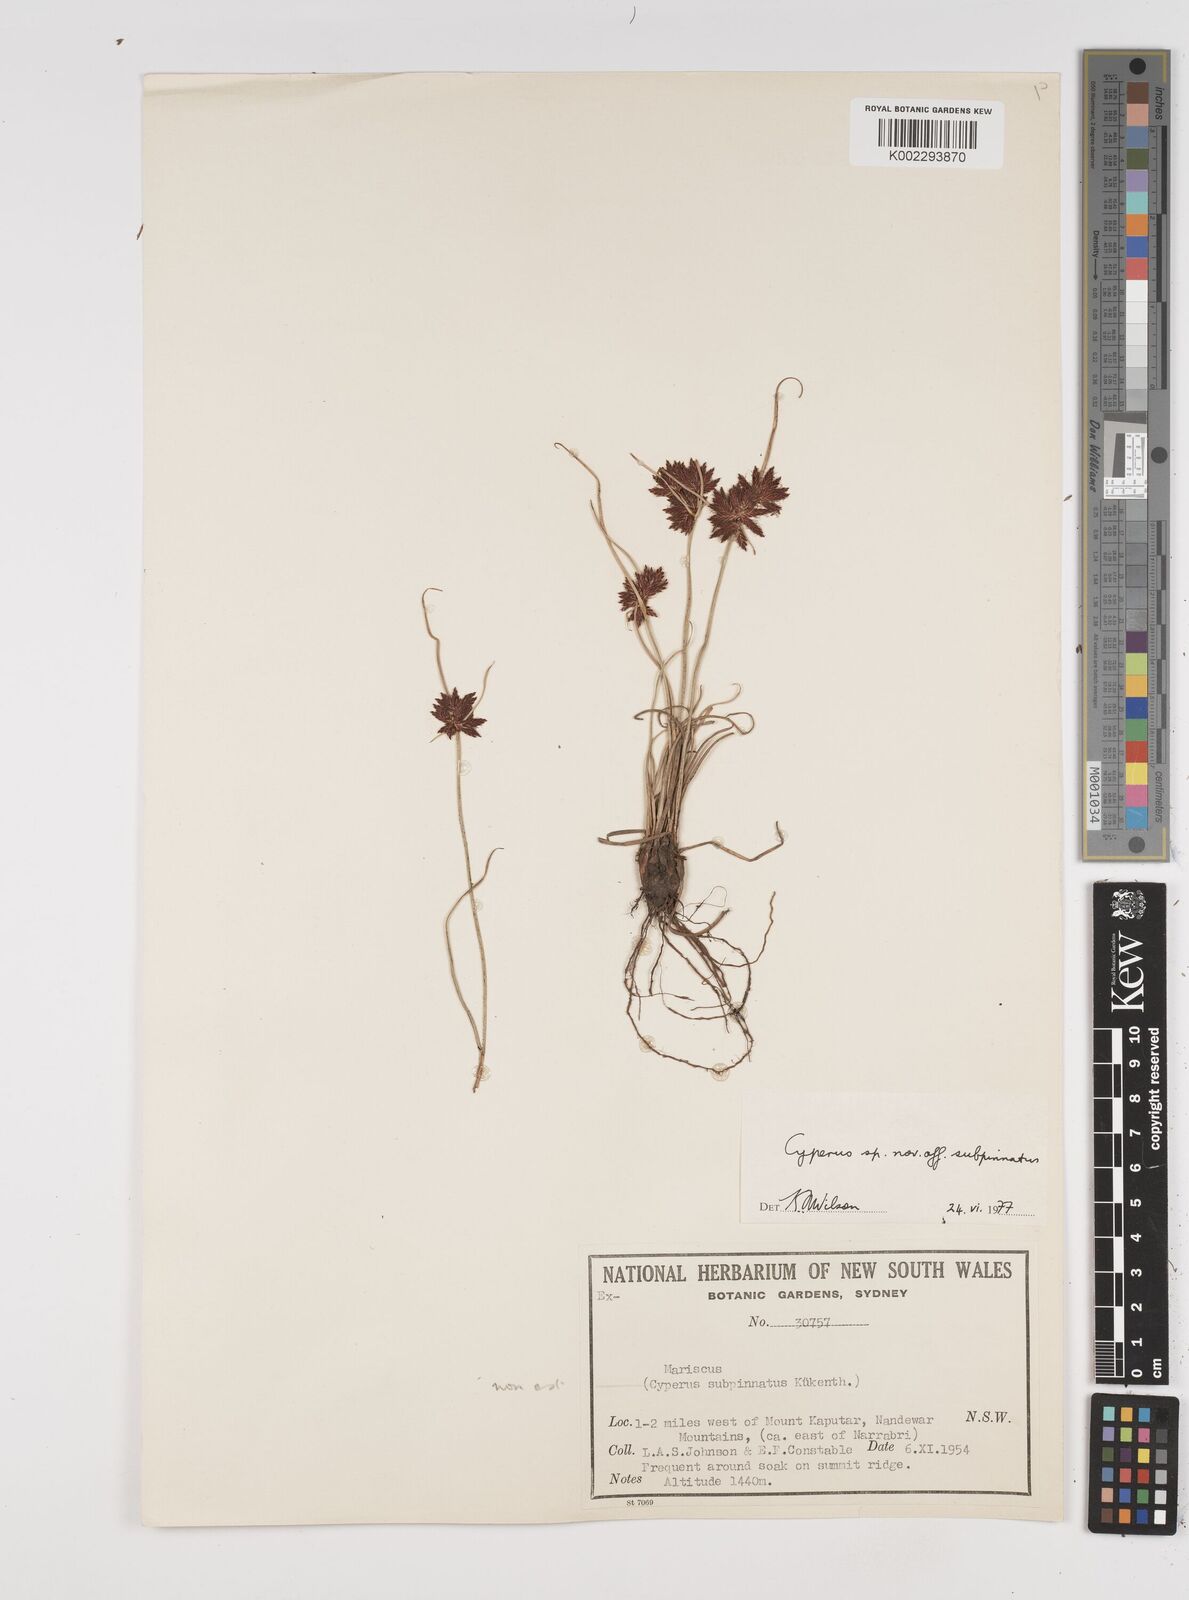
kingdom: Plantae
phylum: Tracheophyta
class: Liliopsida
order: Poales
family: Cyperaceae
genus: Cyperus
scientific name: Cyperus
